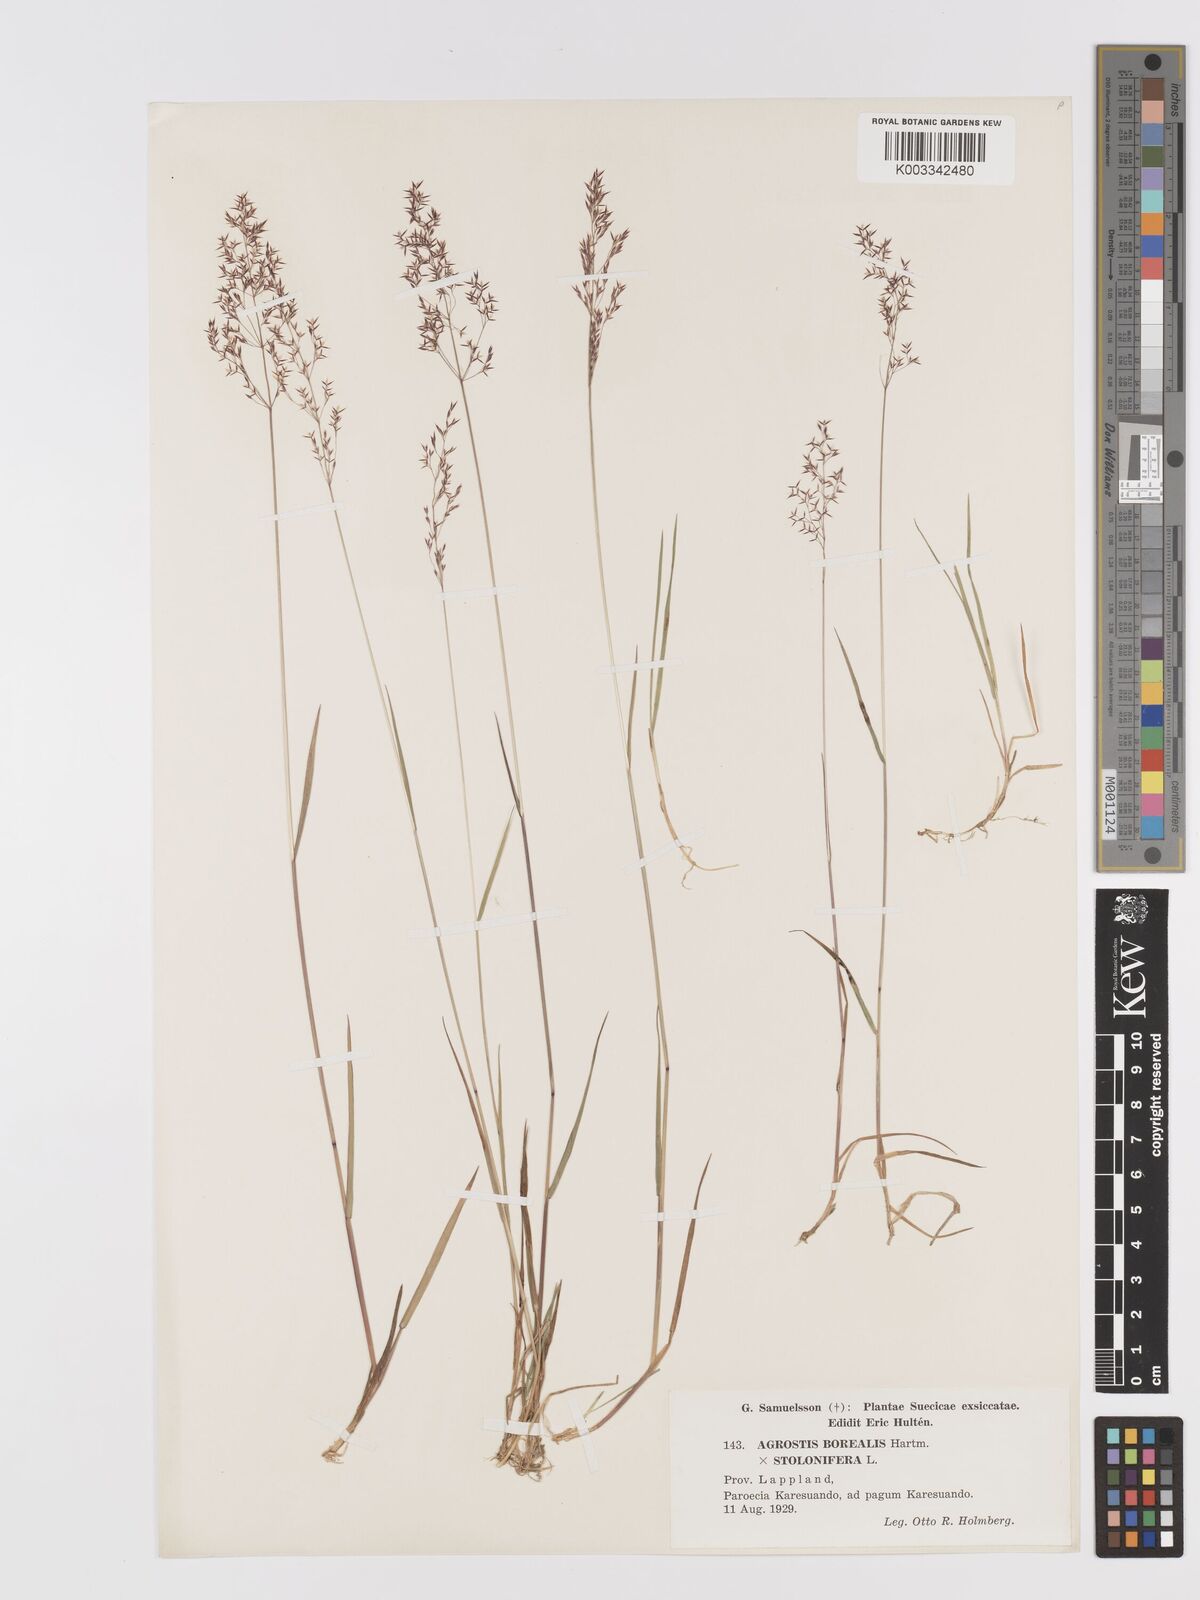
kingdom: Plantae
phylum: Tracheophyta
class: Liliopsida
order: Poales
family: Poaceae
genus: Agrostis
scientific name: Agrostis mertensii
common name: Northern bent
